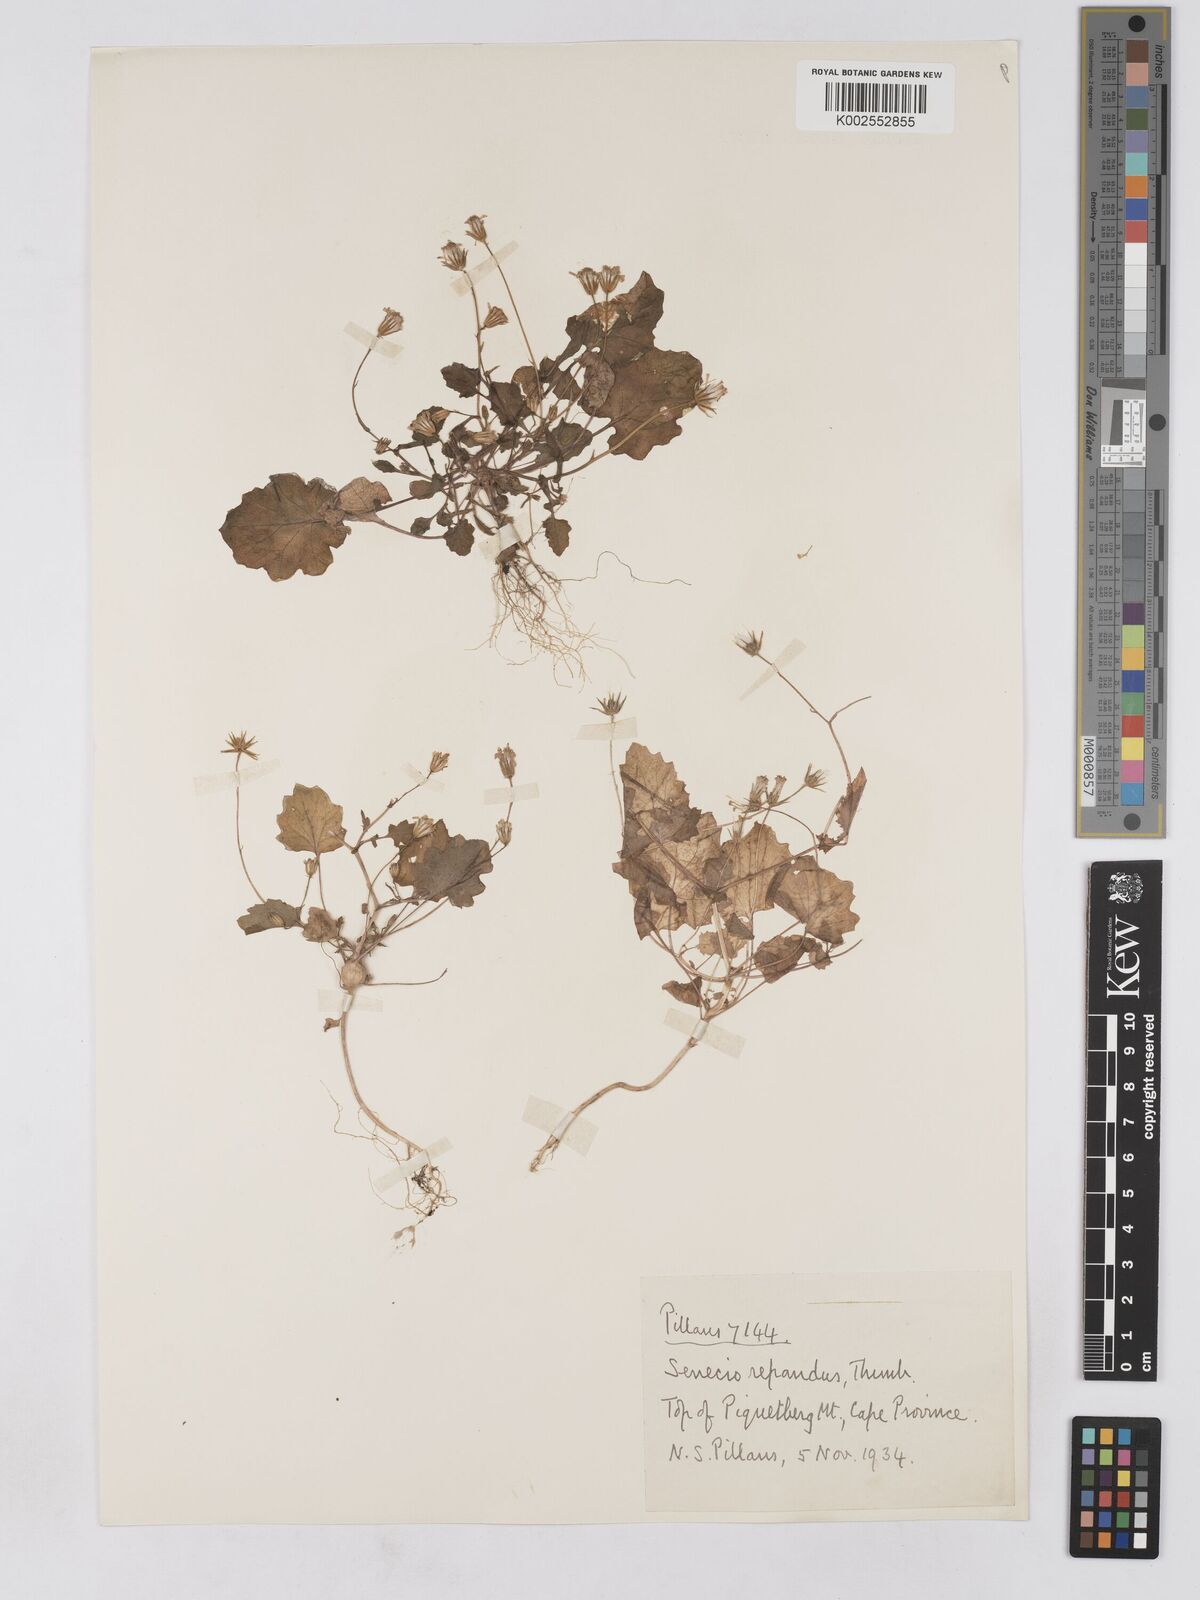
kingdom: Plantae
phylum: Tracheophyta
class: Magnoliopsida
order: Asterales
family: Asteraceae
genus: Senecio
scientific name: Senecio repandus
